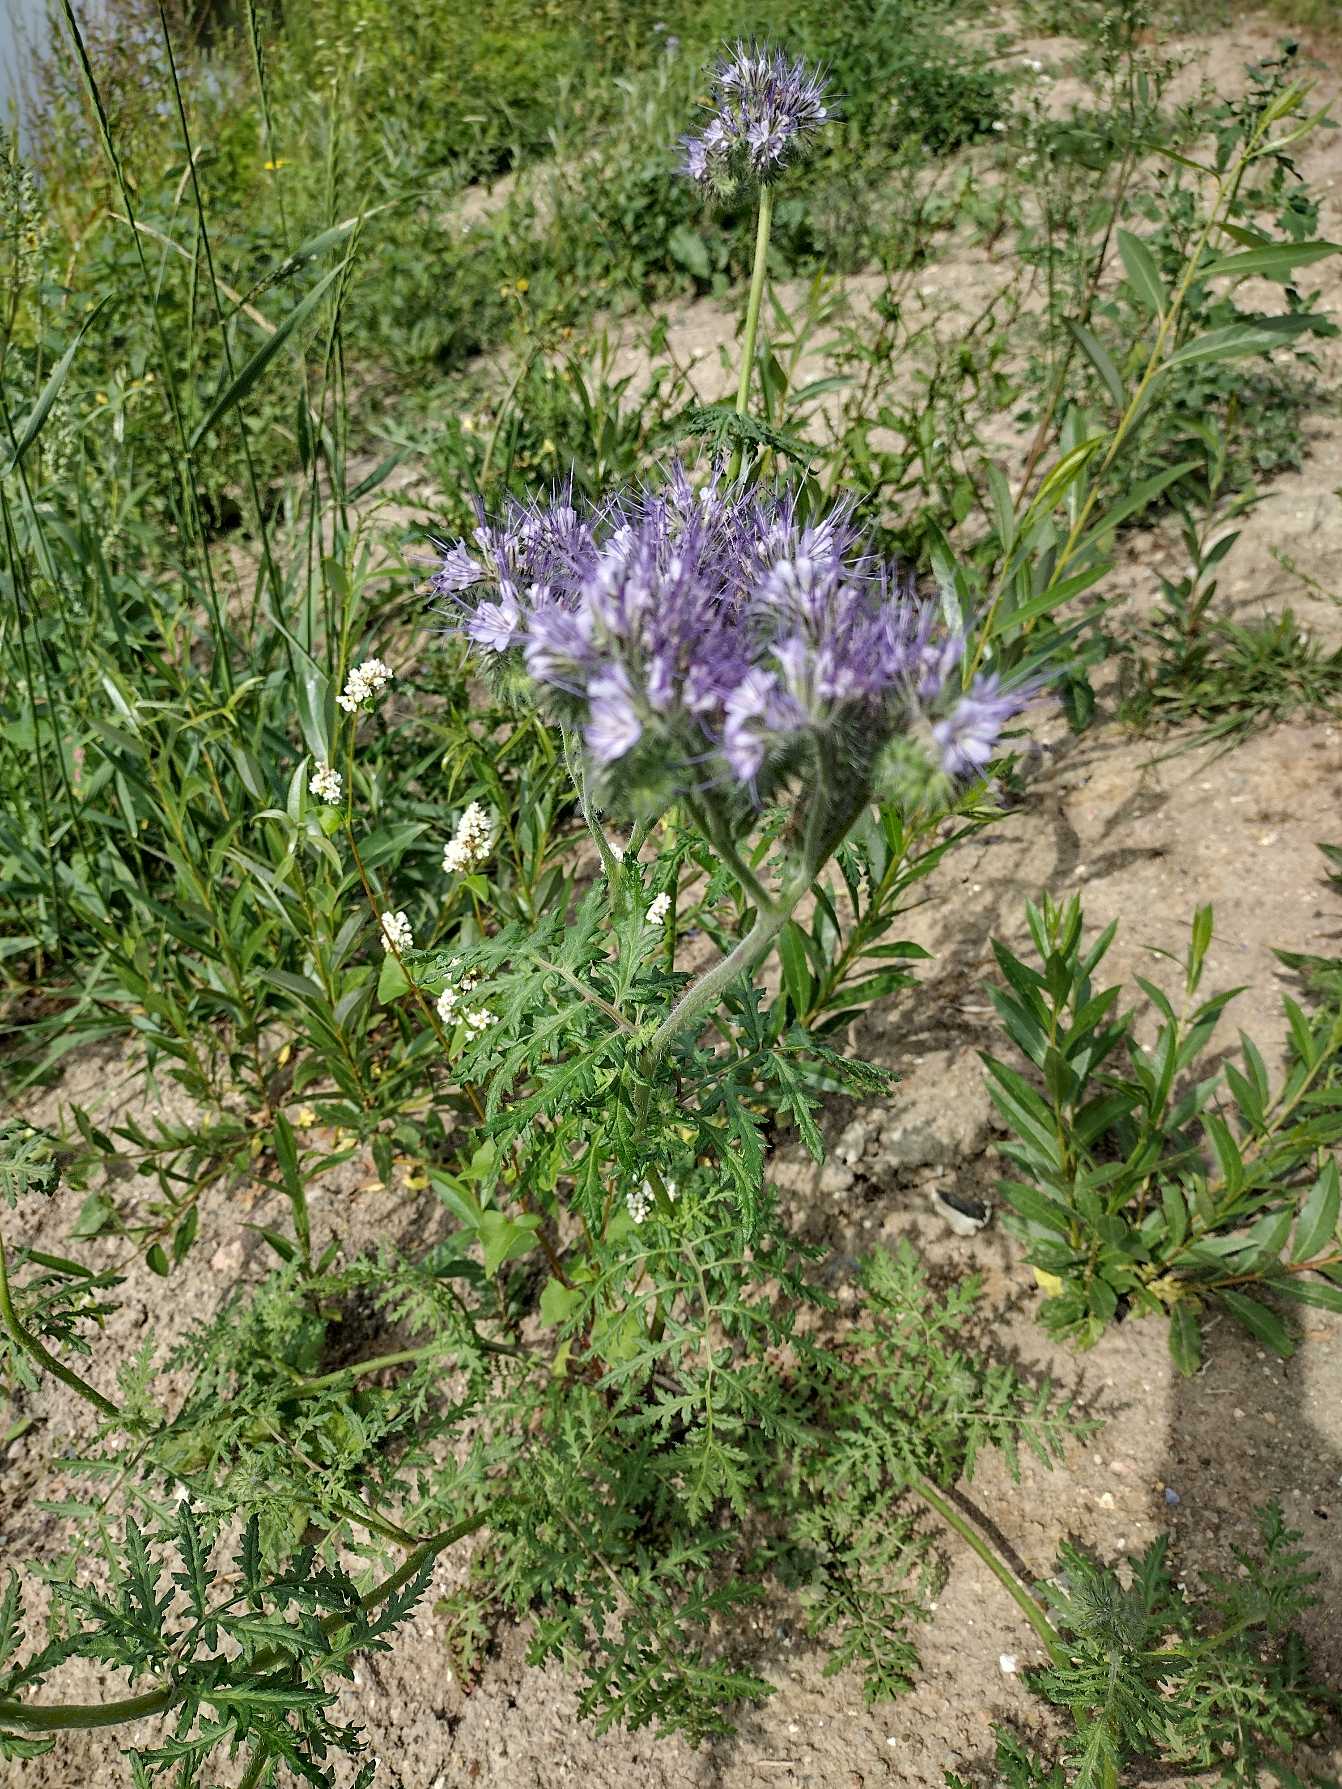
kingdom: Plantae
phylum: Tracheophyta
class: Magnoliopsida
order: Boraginales
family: Hydrophyllaceae
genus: Phacelia
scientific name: Phacelia tanacetifolia
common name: Honningurt
